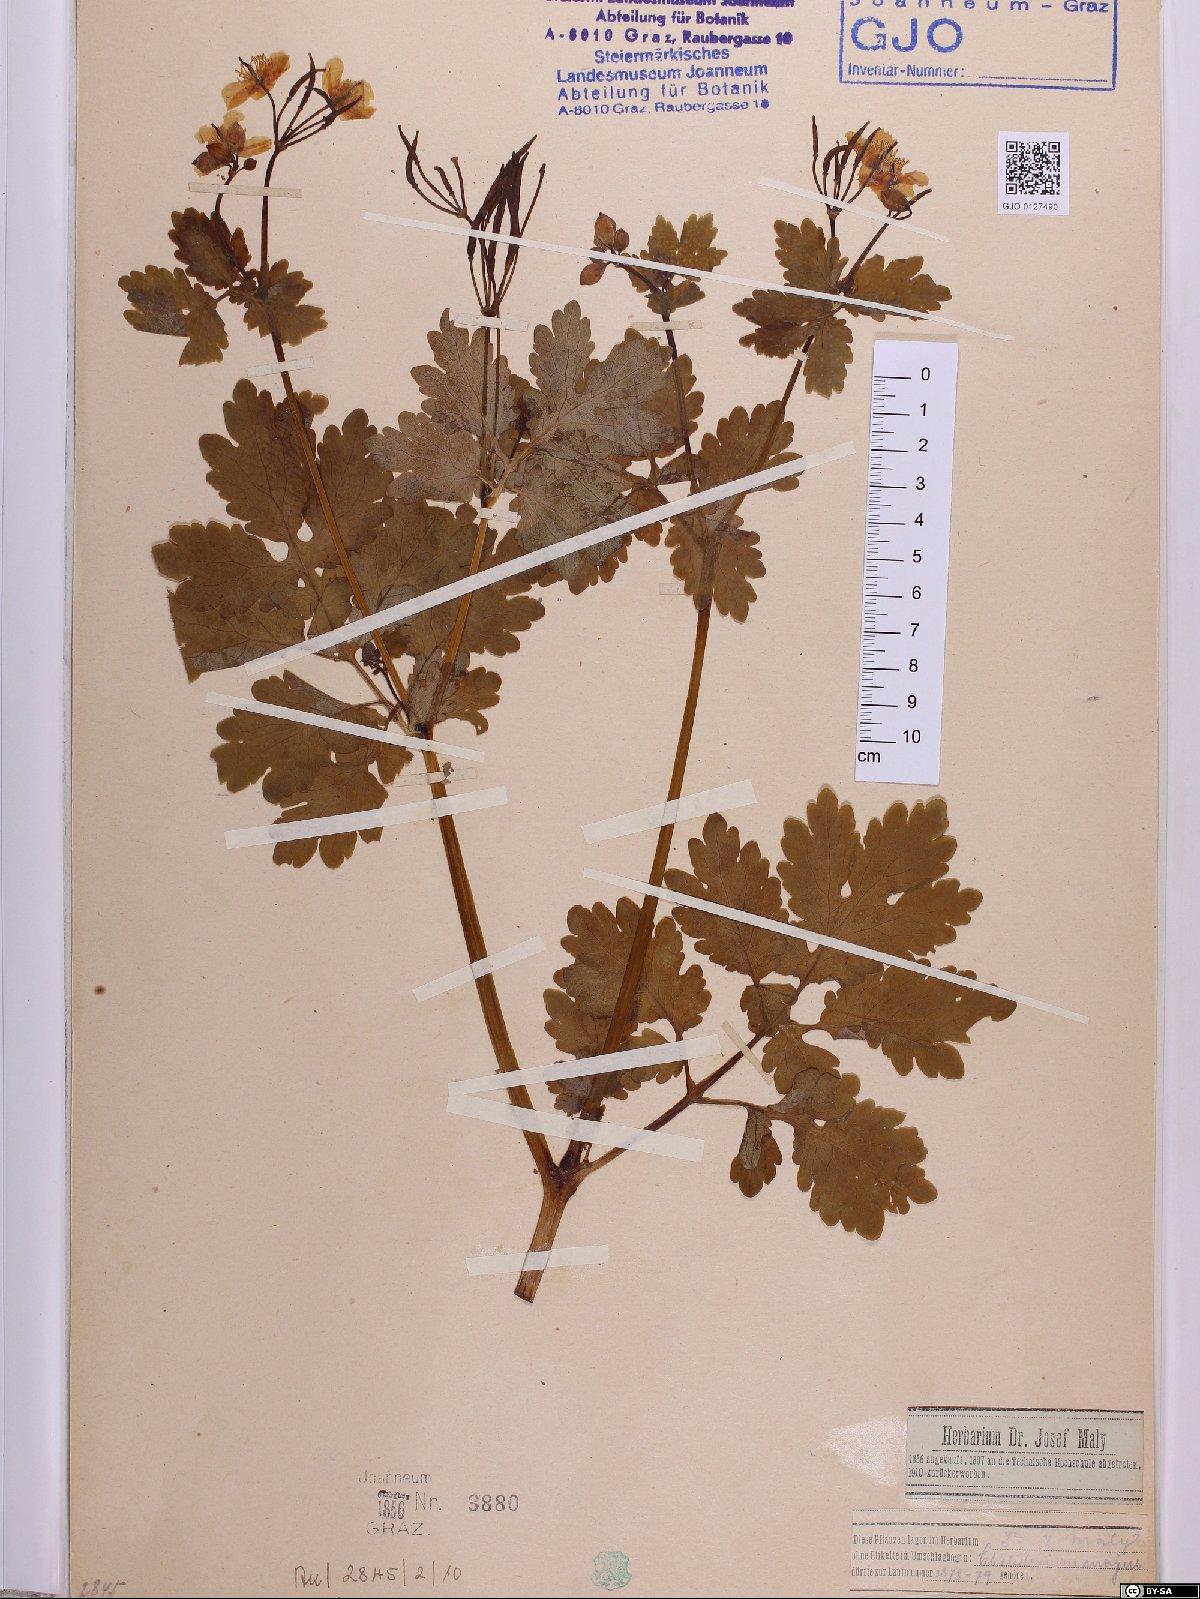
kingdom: Plantae
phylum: Tracheophyta
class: Magnoliopsida
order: Ranunculales
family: Papaveraceae
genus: Chelidonium
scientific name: Chelidonium majus
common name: Greater celandine
